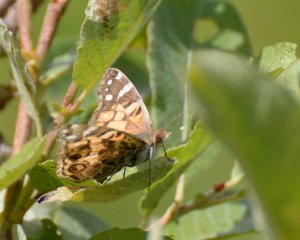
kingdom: Animalia
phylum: Arthropoda
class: Insecta
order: Lepidoptera
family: Nymphalidae
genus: Vanessa
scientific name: Vanessa virginiensis
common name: American Lady
